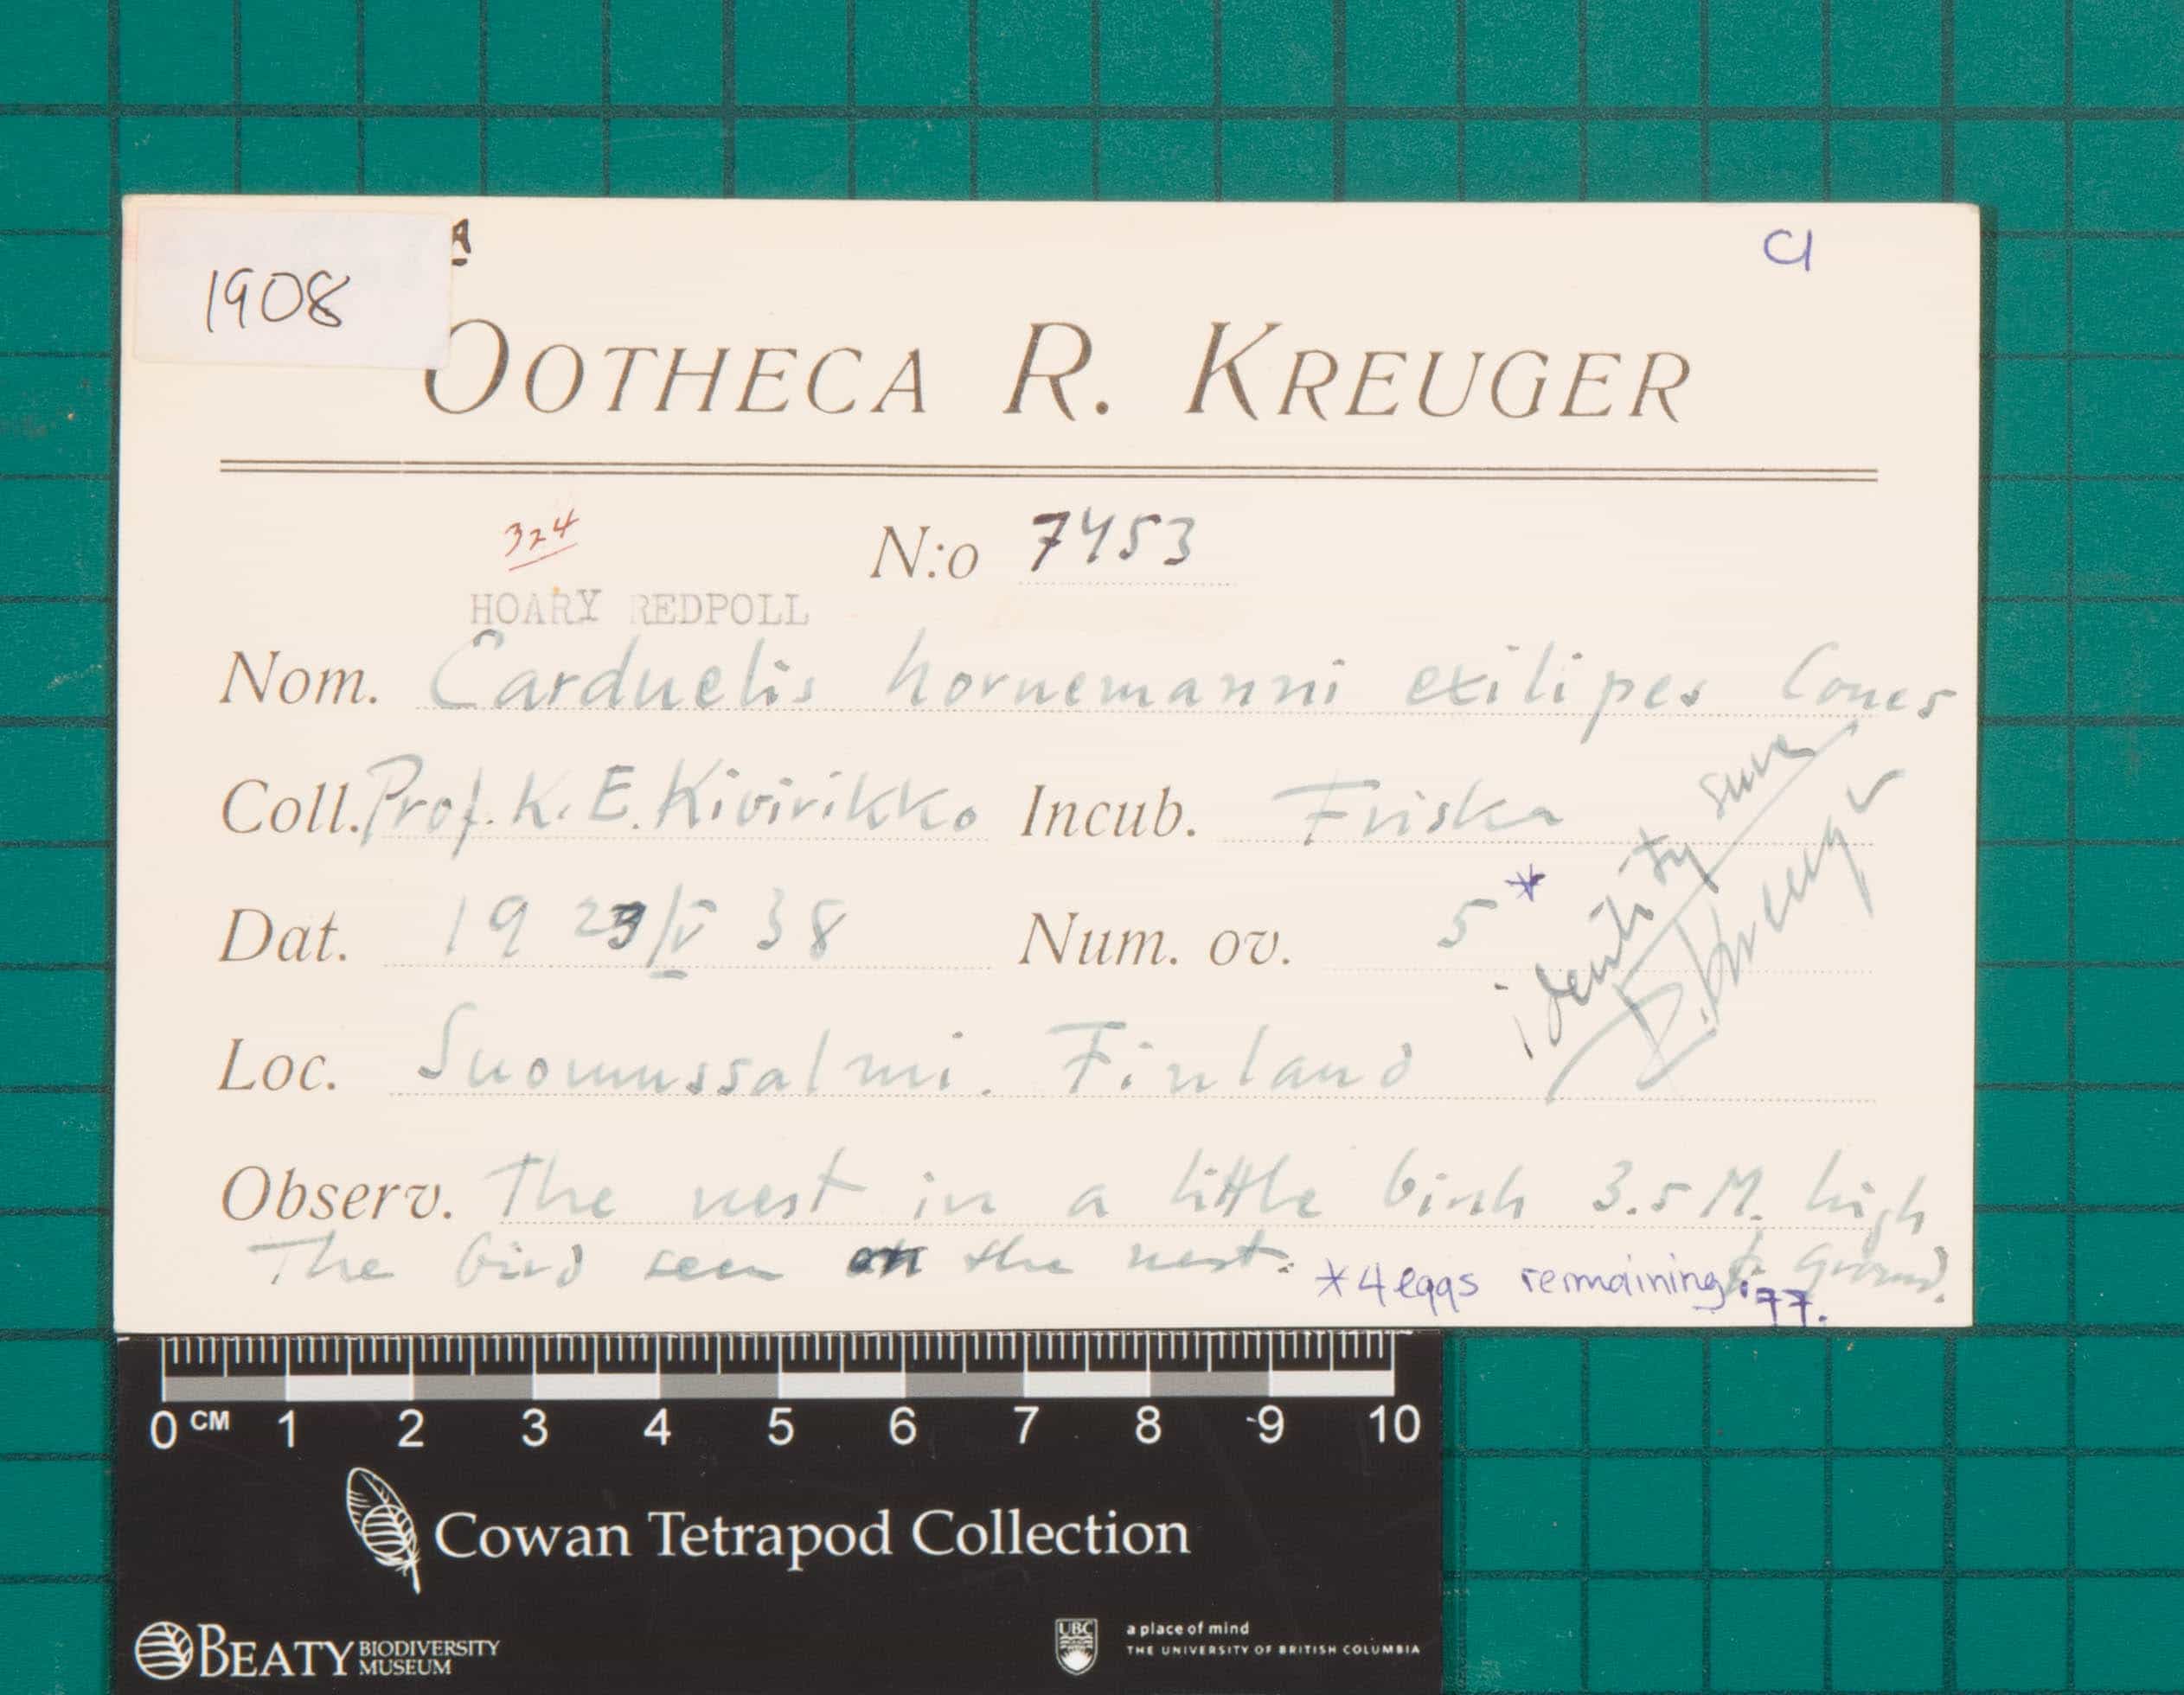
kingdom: Animalia
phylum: Chordata
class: Aves
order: Passeriformes
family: Fringillidae
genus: Acanthis
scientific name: Acanthis hornemanni
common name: Hoary Redpoll
